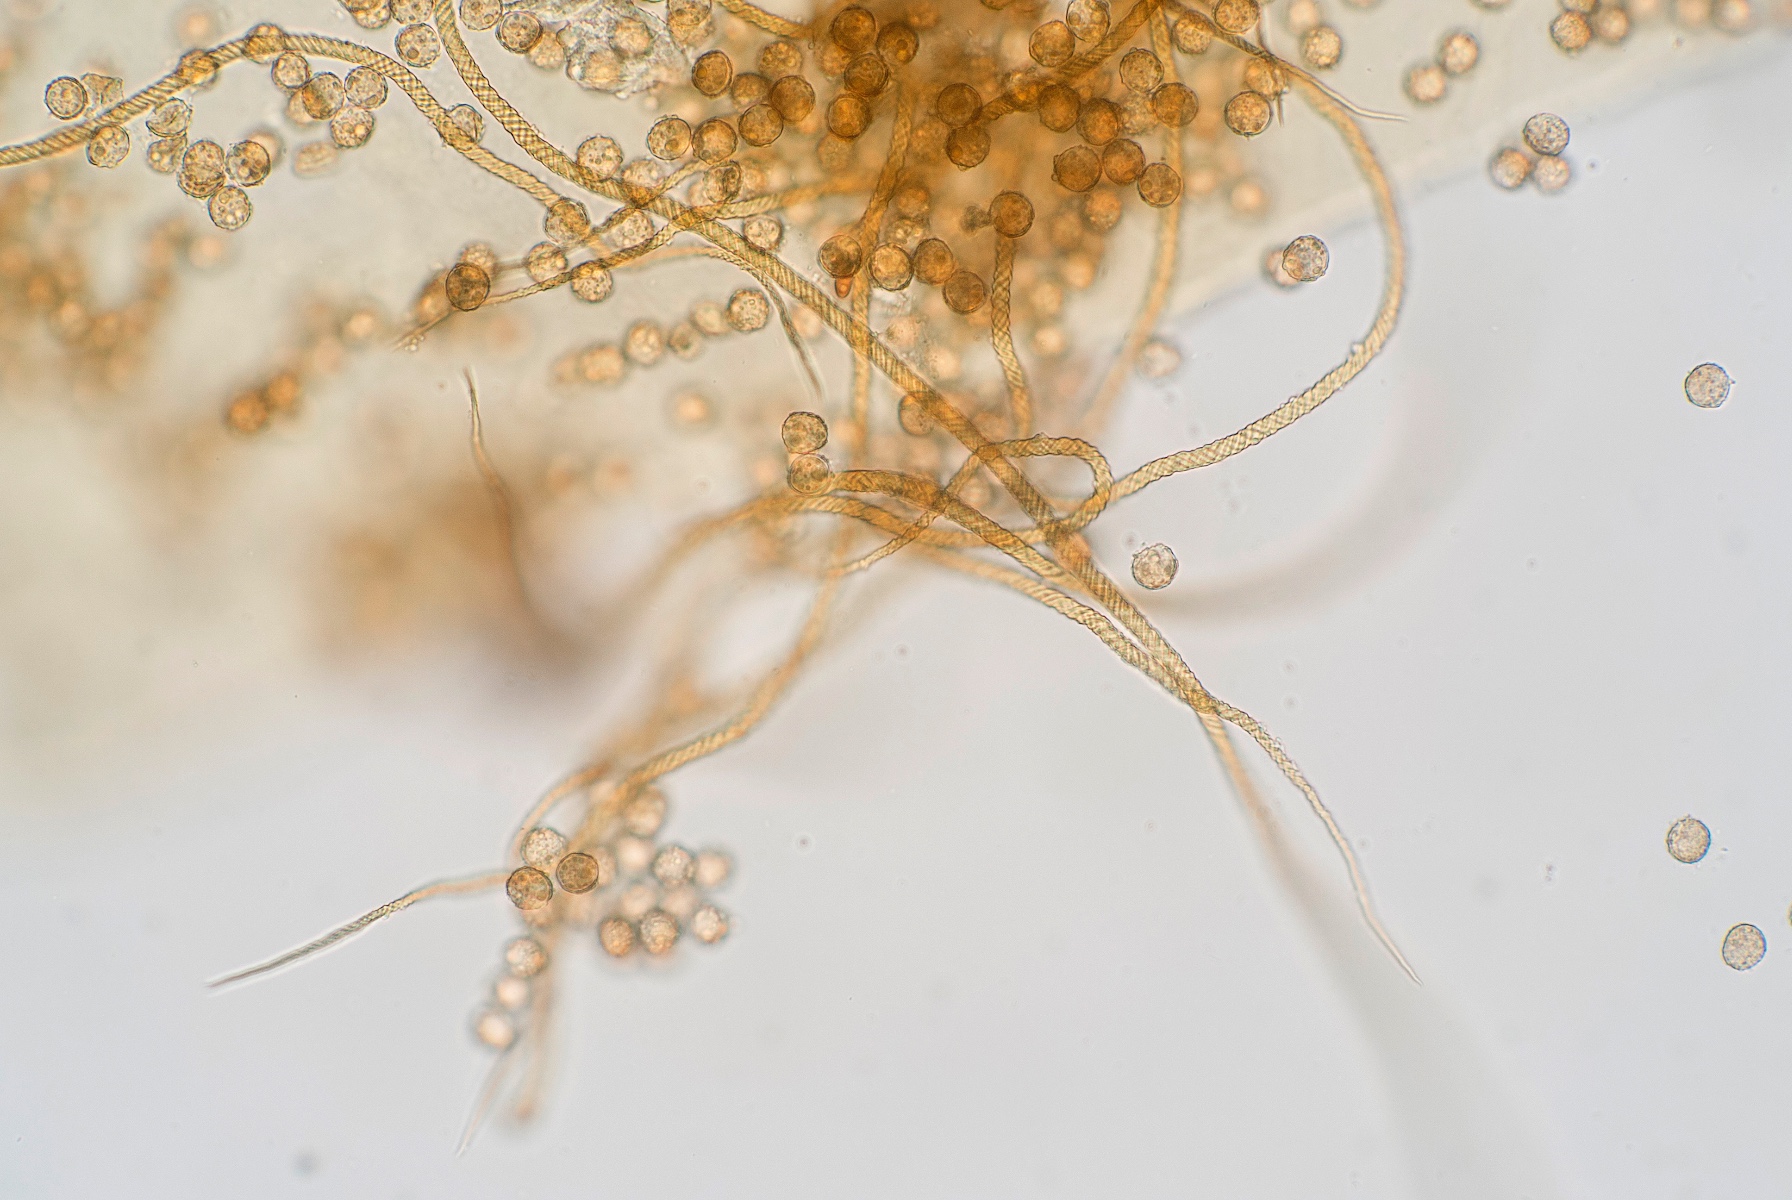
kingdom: Protozoa
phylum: Mycetozoa
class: Myxomycetes
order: Trichiales
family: Trichiaceae
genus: Trichia
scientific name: Trichia crateriformis
